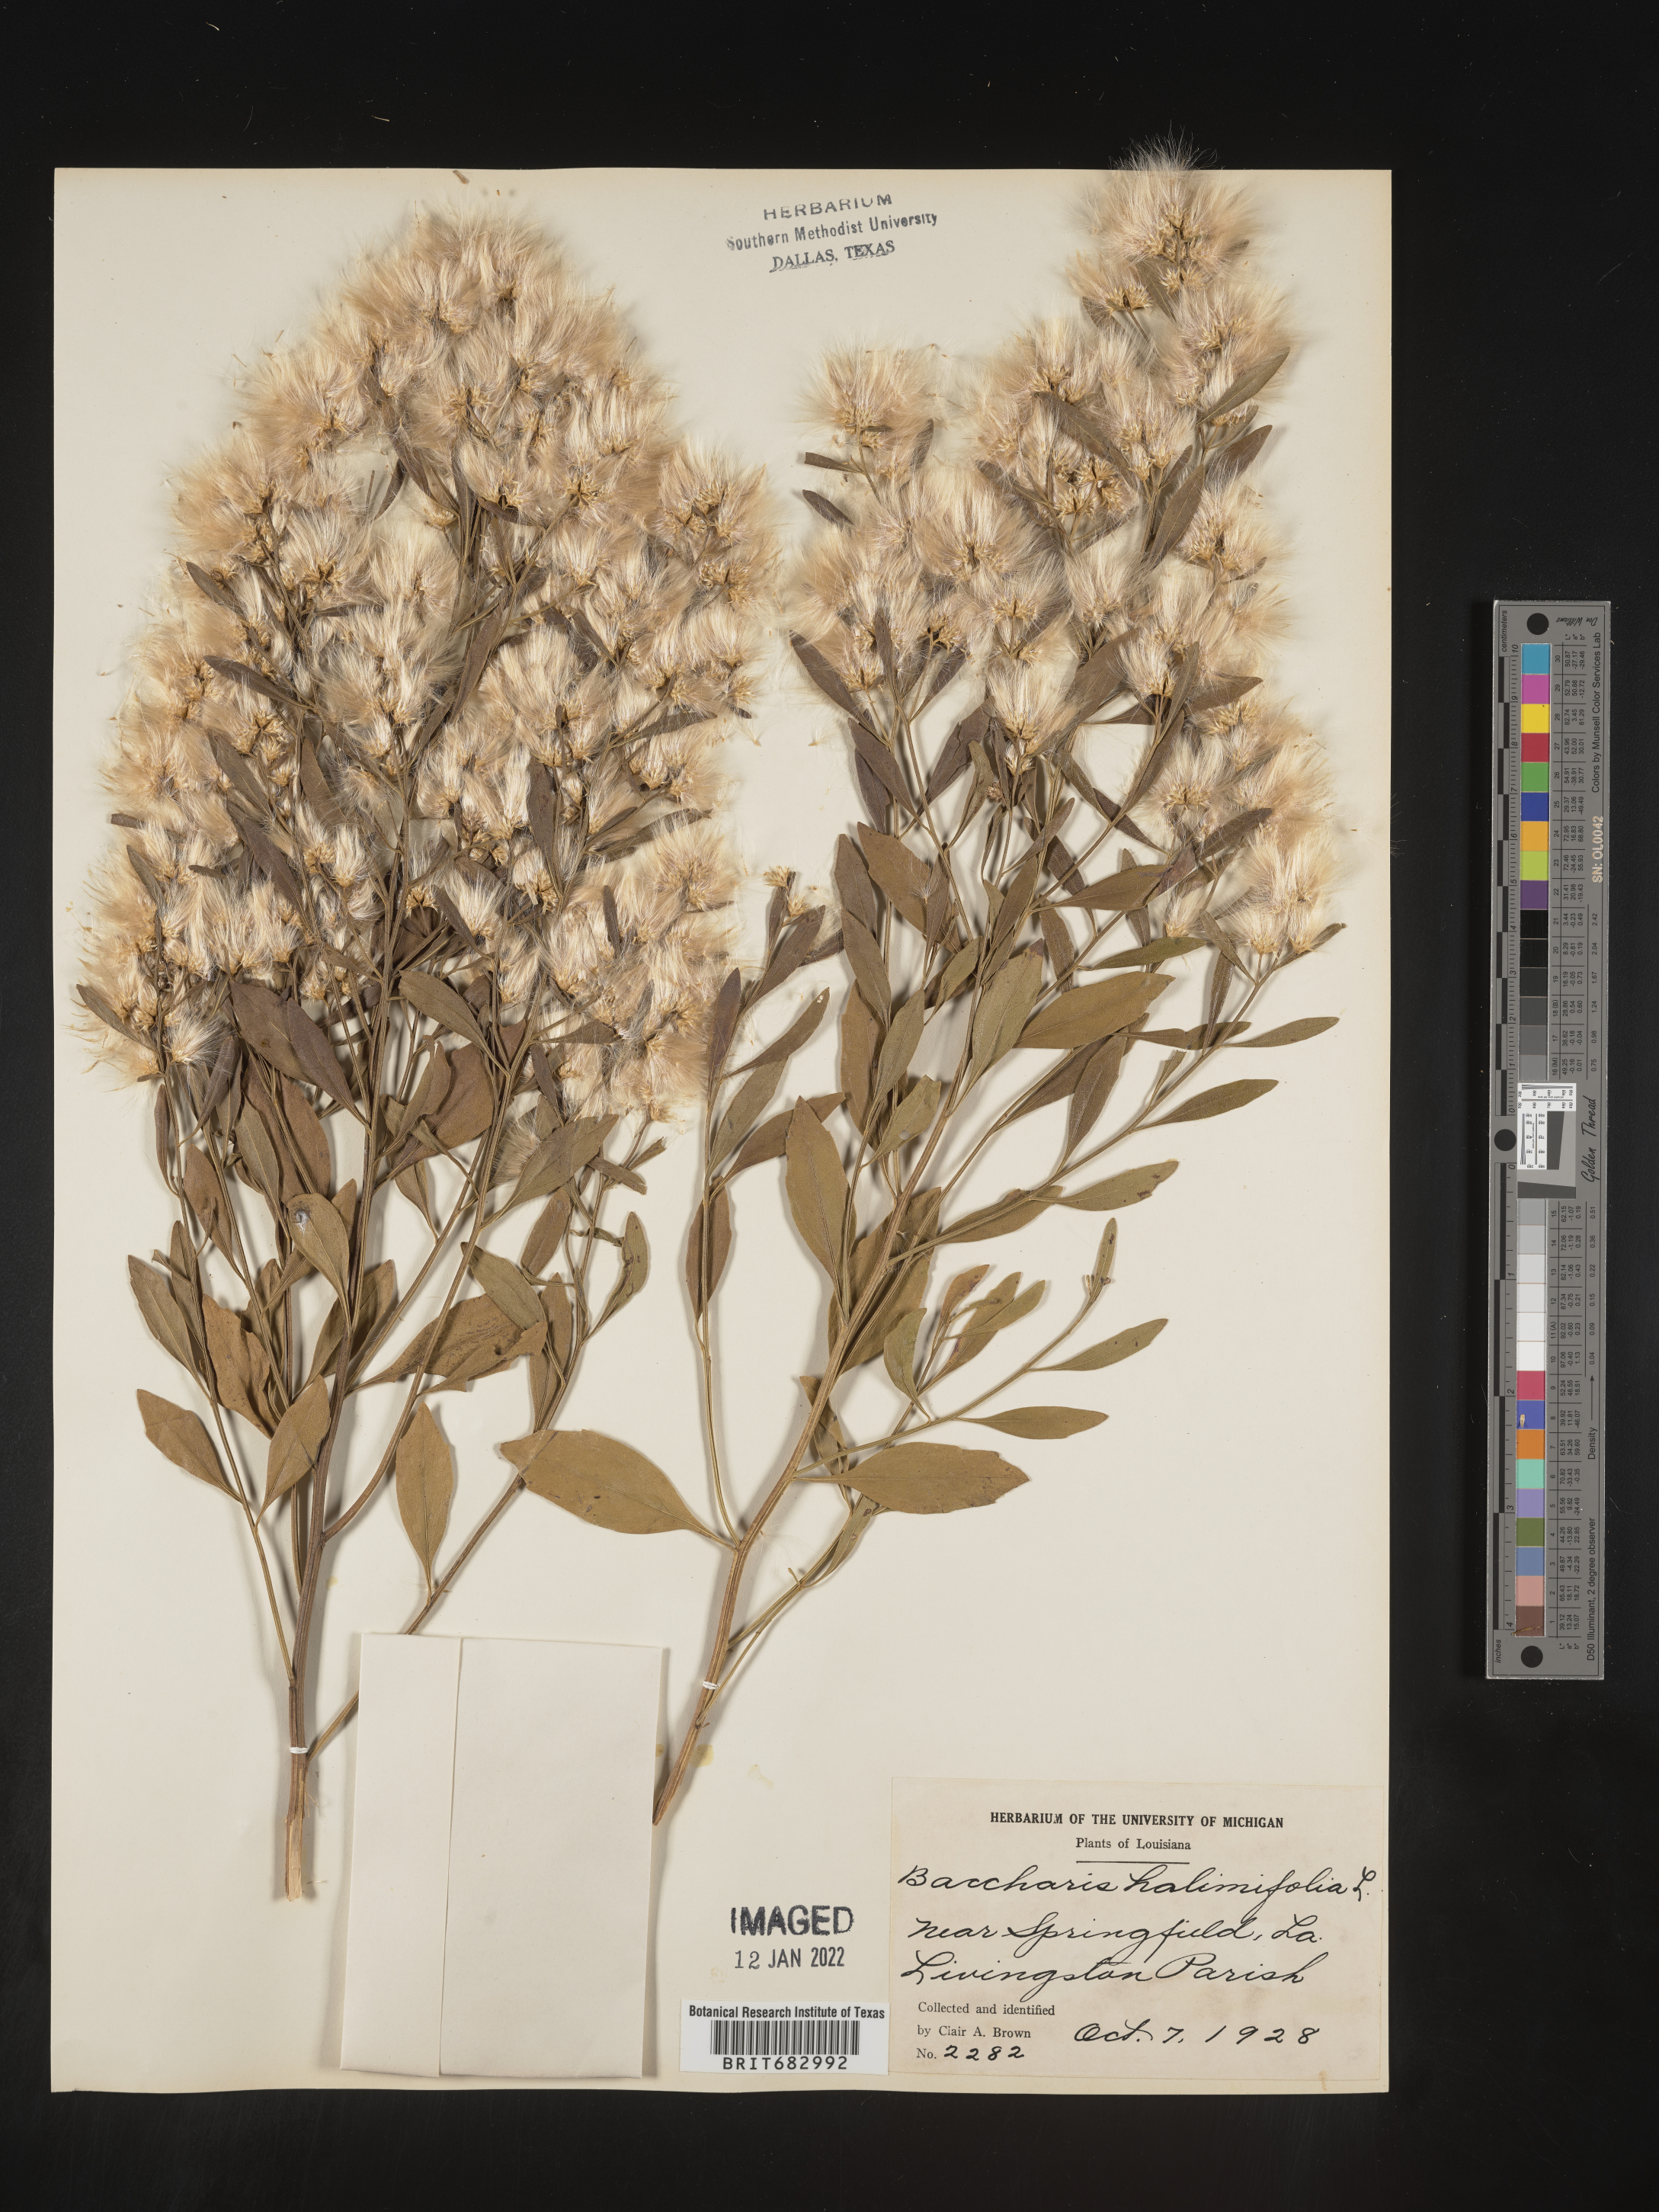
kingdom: Plantae
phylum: Tracheophyta
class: Magnoliopsida
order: Asterales
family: Asteraceae
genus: Nidorella
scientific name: Nidorella ivifolia
